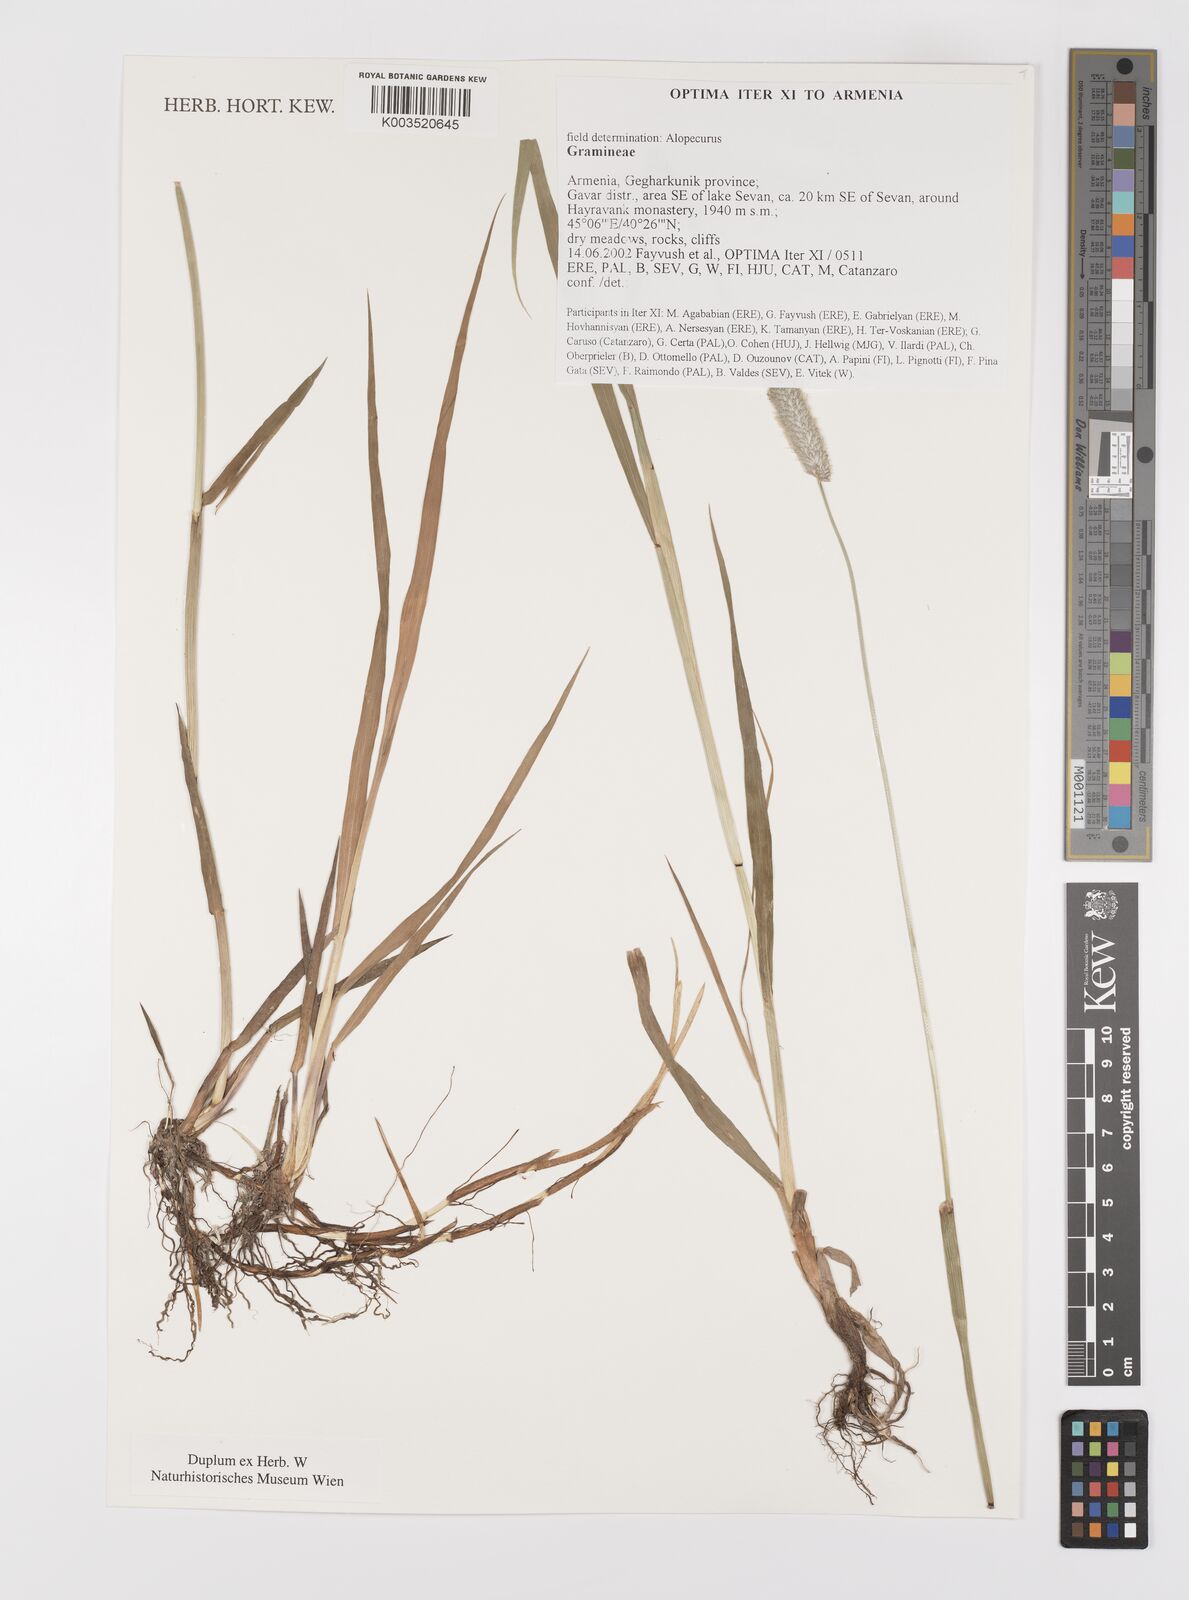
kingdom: Plantae
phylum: Tracheophyta
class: Liliopsida
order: Poales
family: Poaceae
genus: Alopecurus
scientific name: Alopecurus
